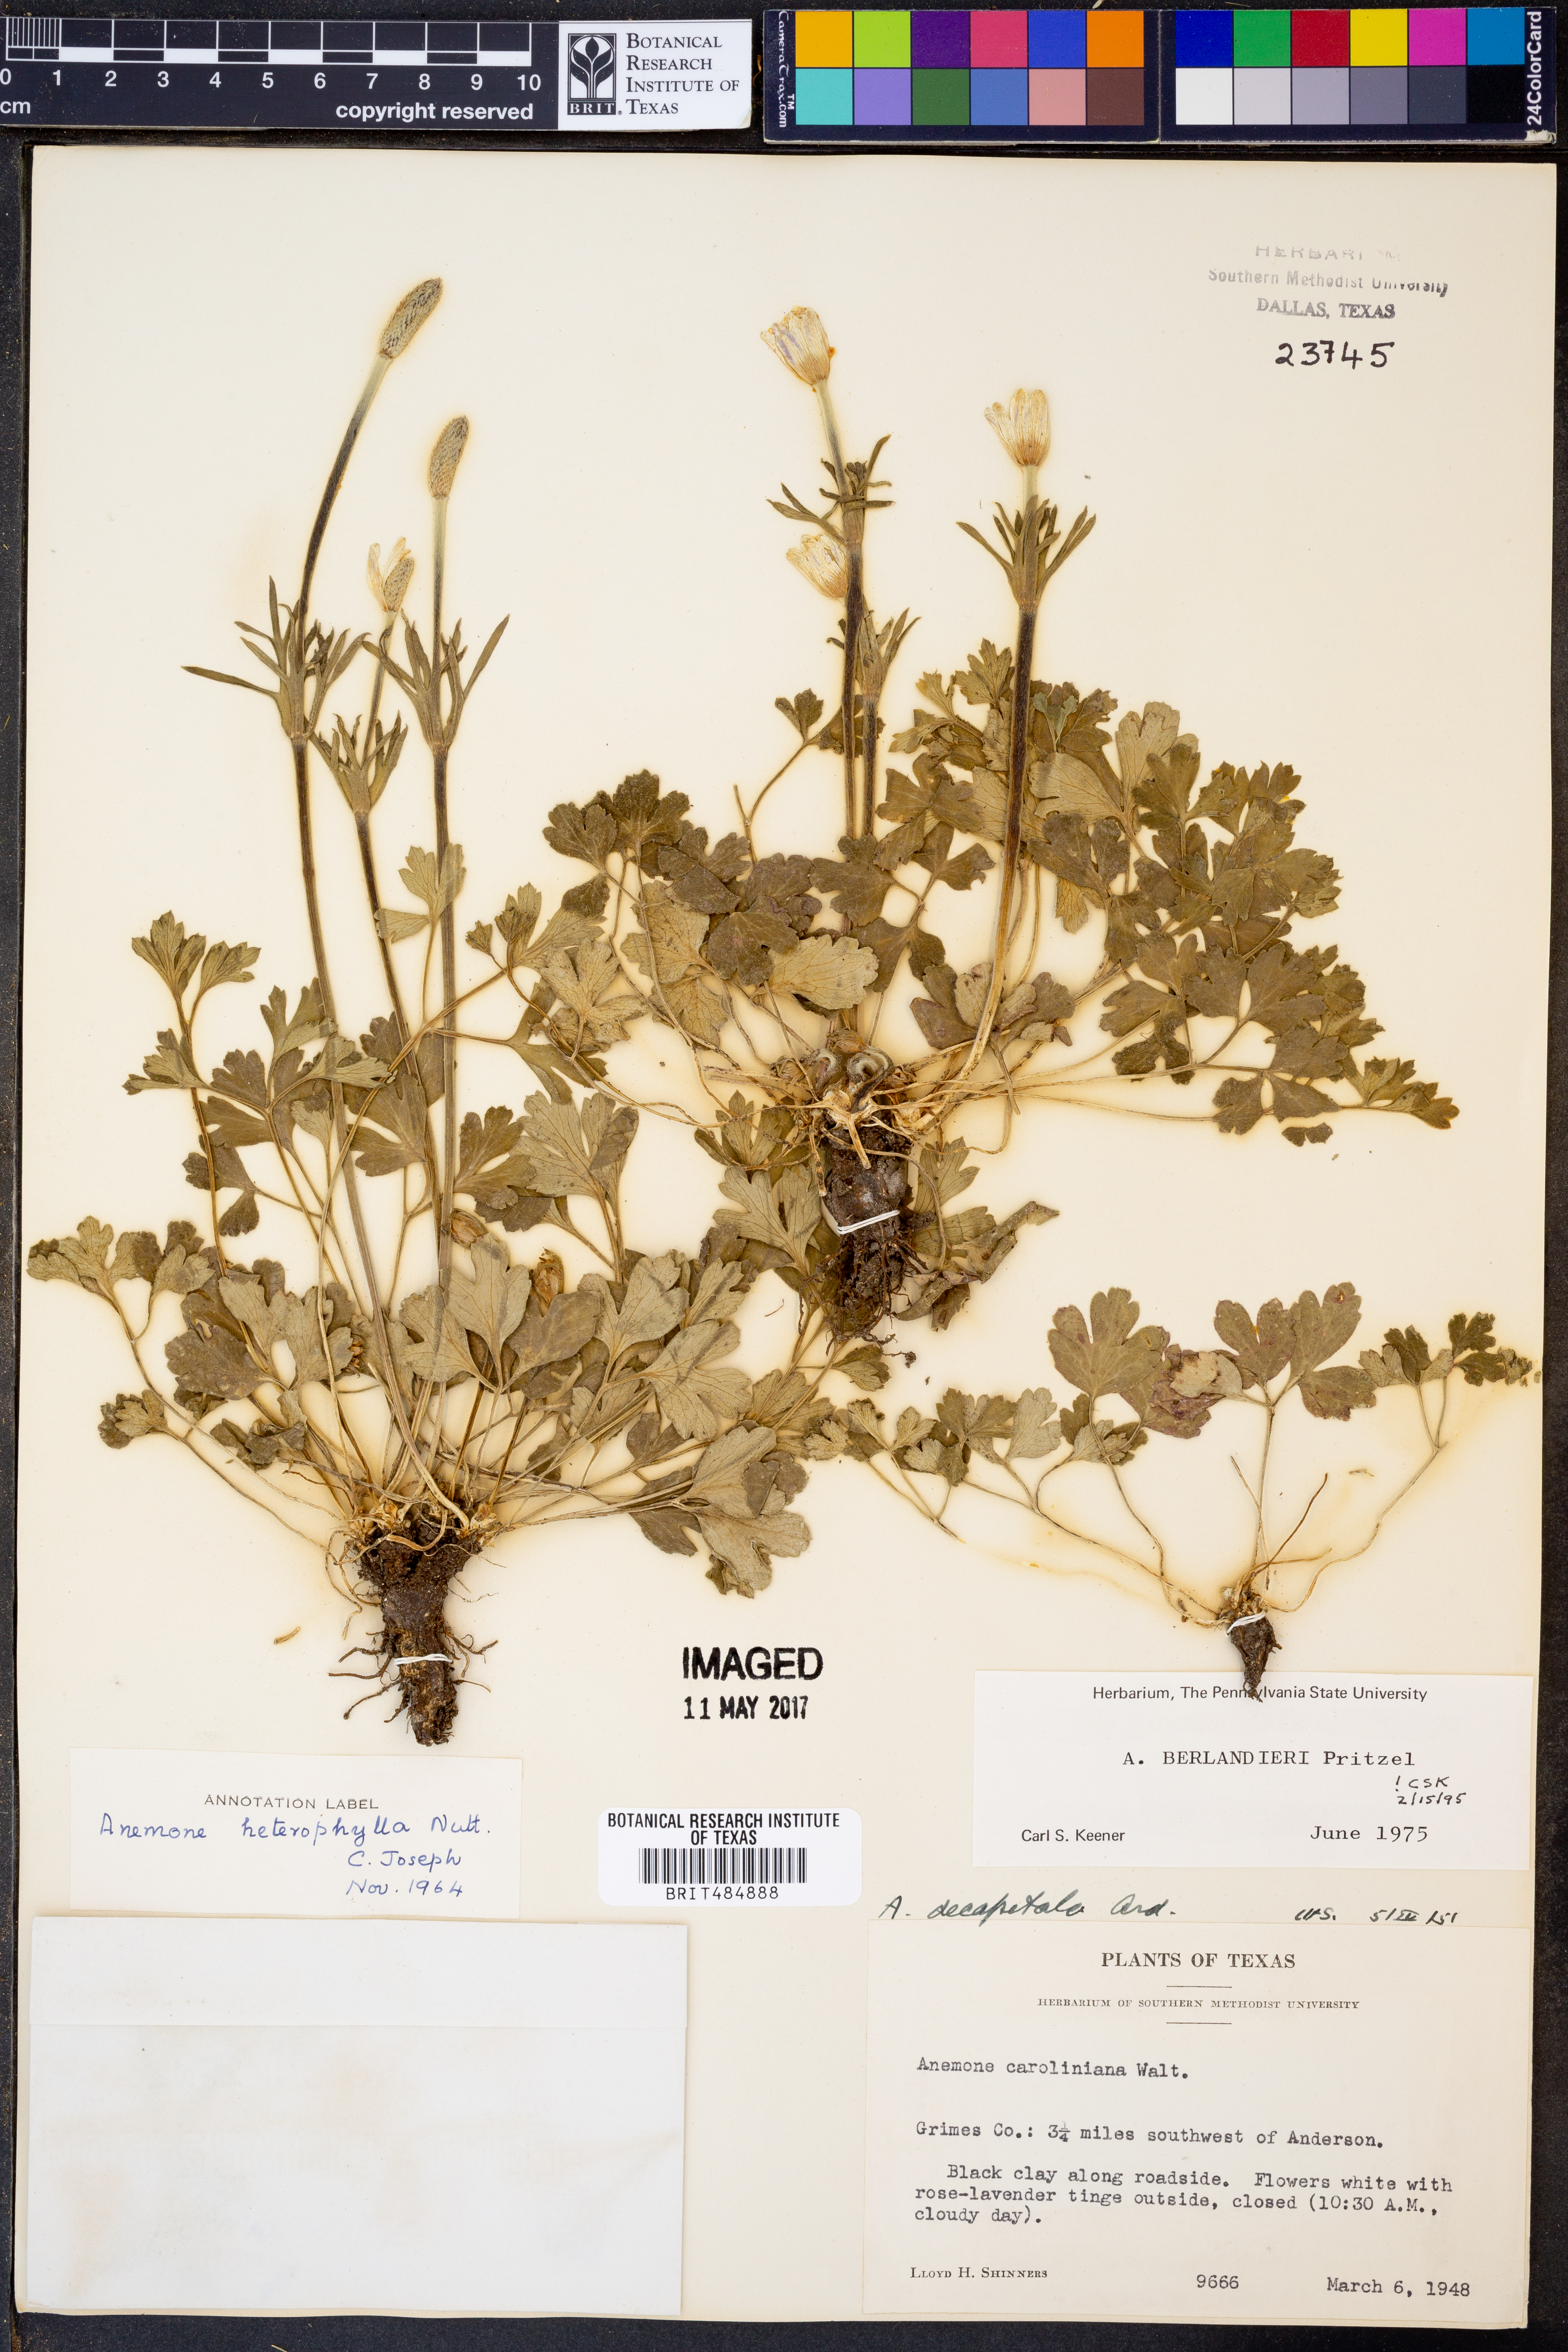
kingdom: Plantae
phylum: Tracheophyta
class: Magnoliopsida
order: Ranunculales
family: Ranunculaceae
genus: Anemone
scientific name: Anemone berlandieri
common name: Ten-petal anemone
